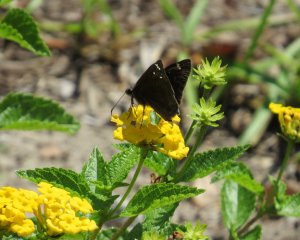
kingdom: Animalia
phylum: Arthropoda
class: Insecta
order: Lepidoptera
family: Hesperiidae
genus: Autochton
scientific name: Autochton
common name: Northern Cloudywing
